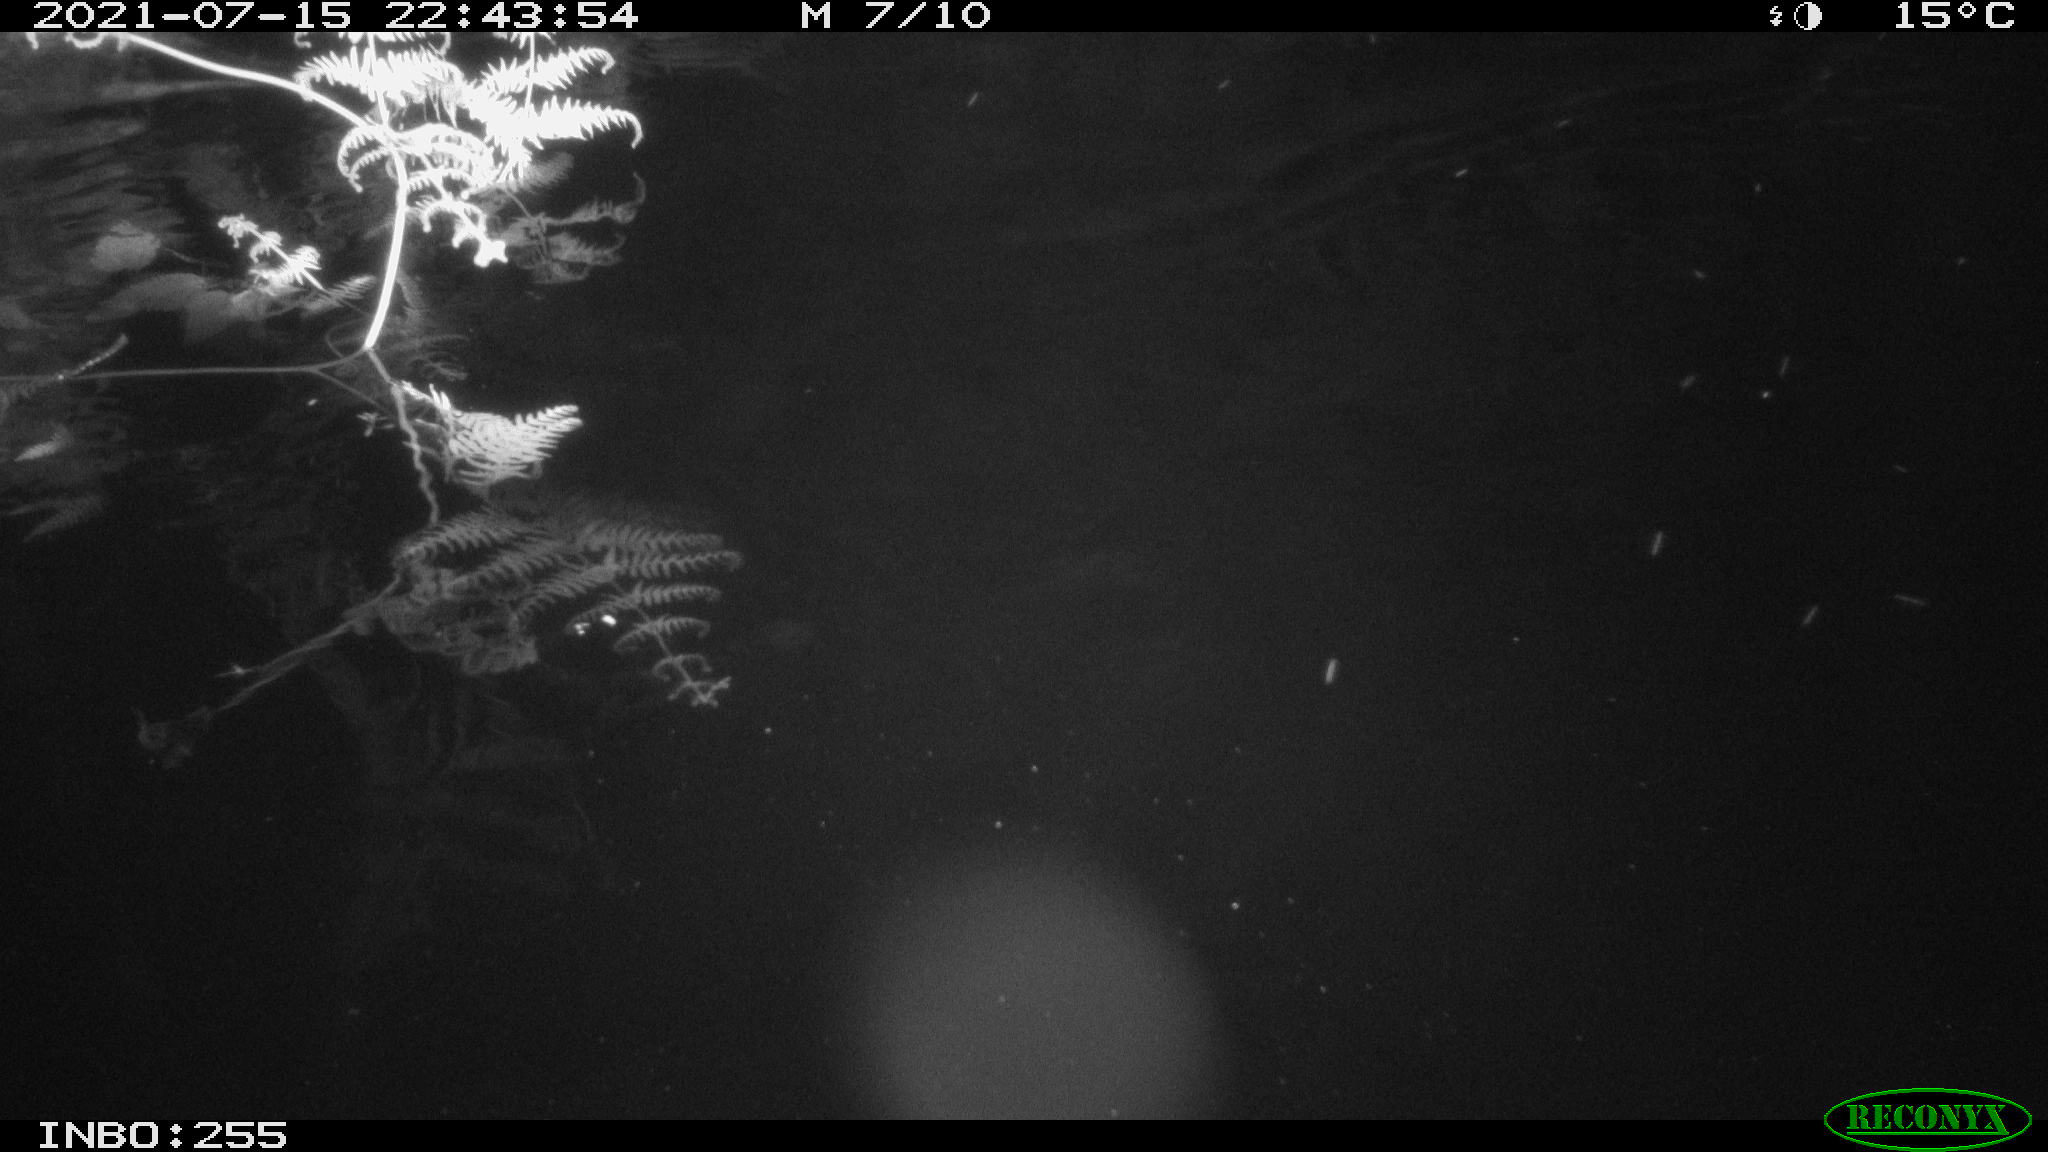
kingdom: Animalia
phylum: Chordata
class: Mammalia
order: Rodentia
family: Muridae
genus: Rattus
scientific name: Rattus norvegicus
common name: Brown rat
